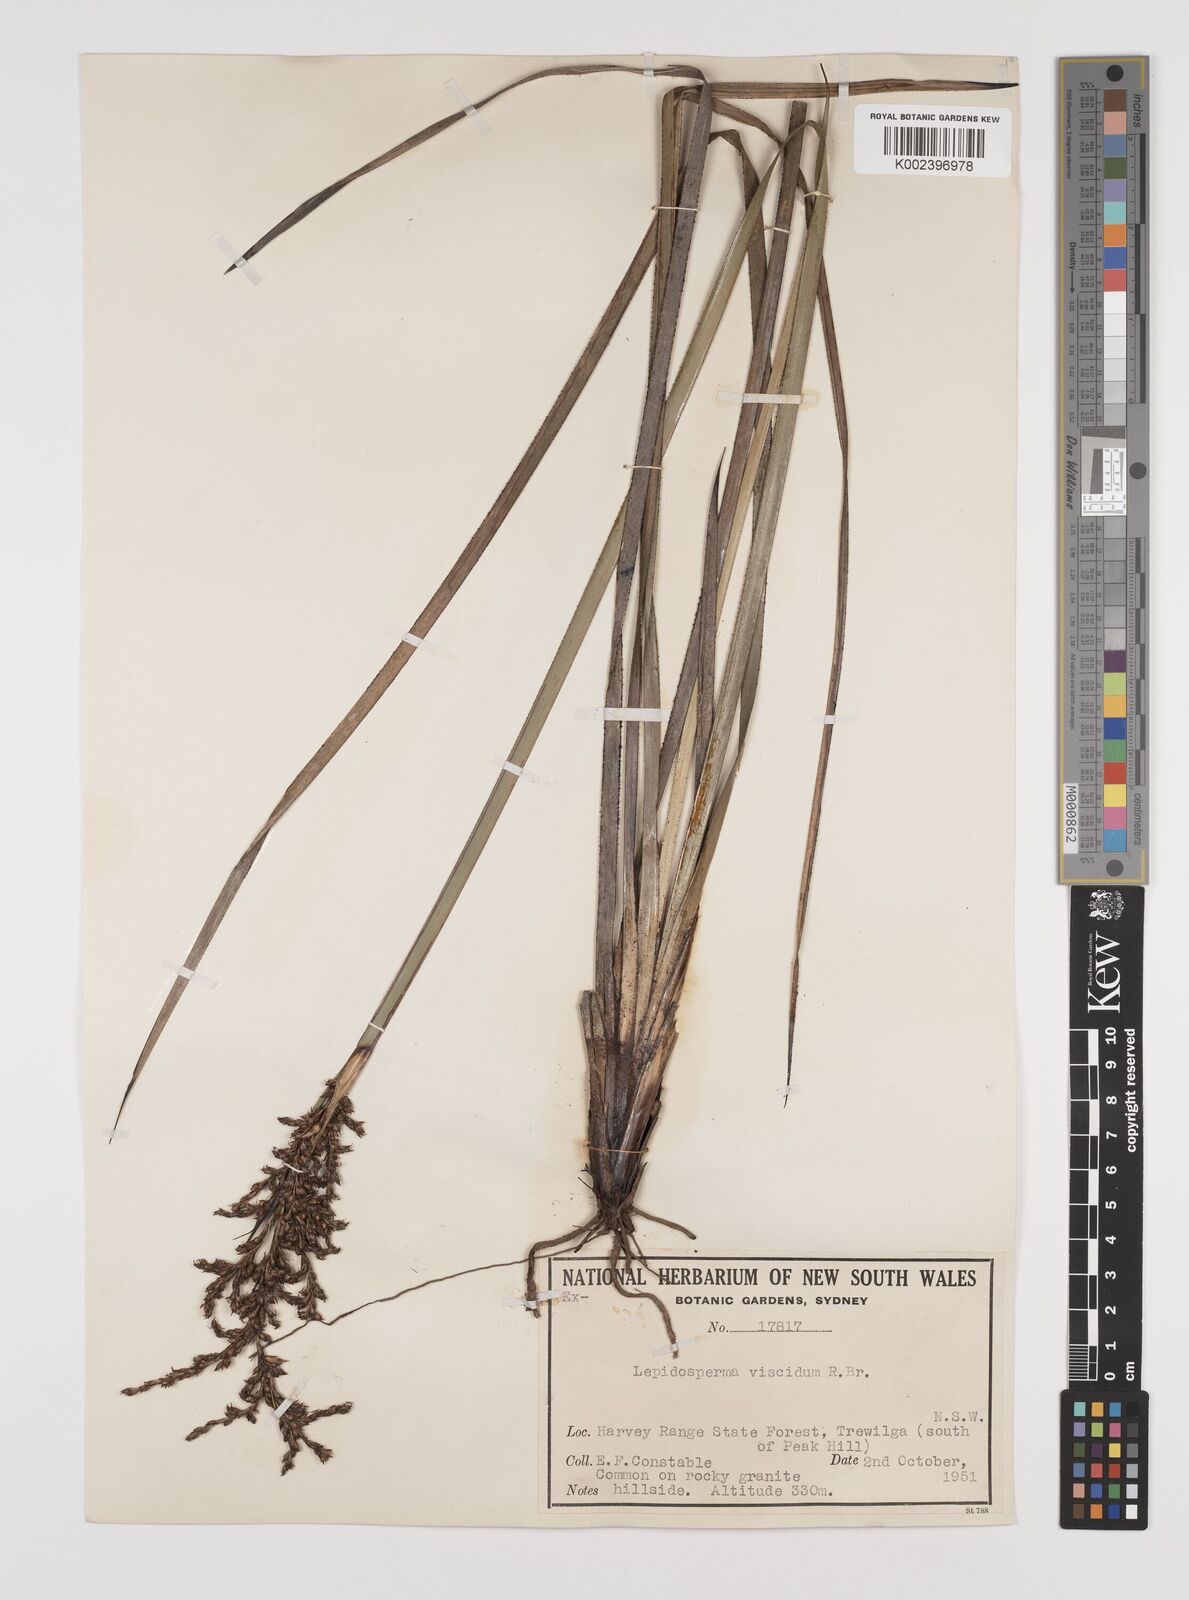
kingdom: Plantae
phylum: Tracheophyta
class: Liliopsida
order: Poales
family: Cyperaceae
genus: Lepidosperma
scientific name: Lepidosperma viscidum
